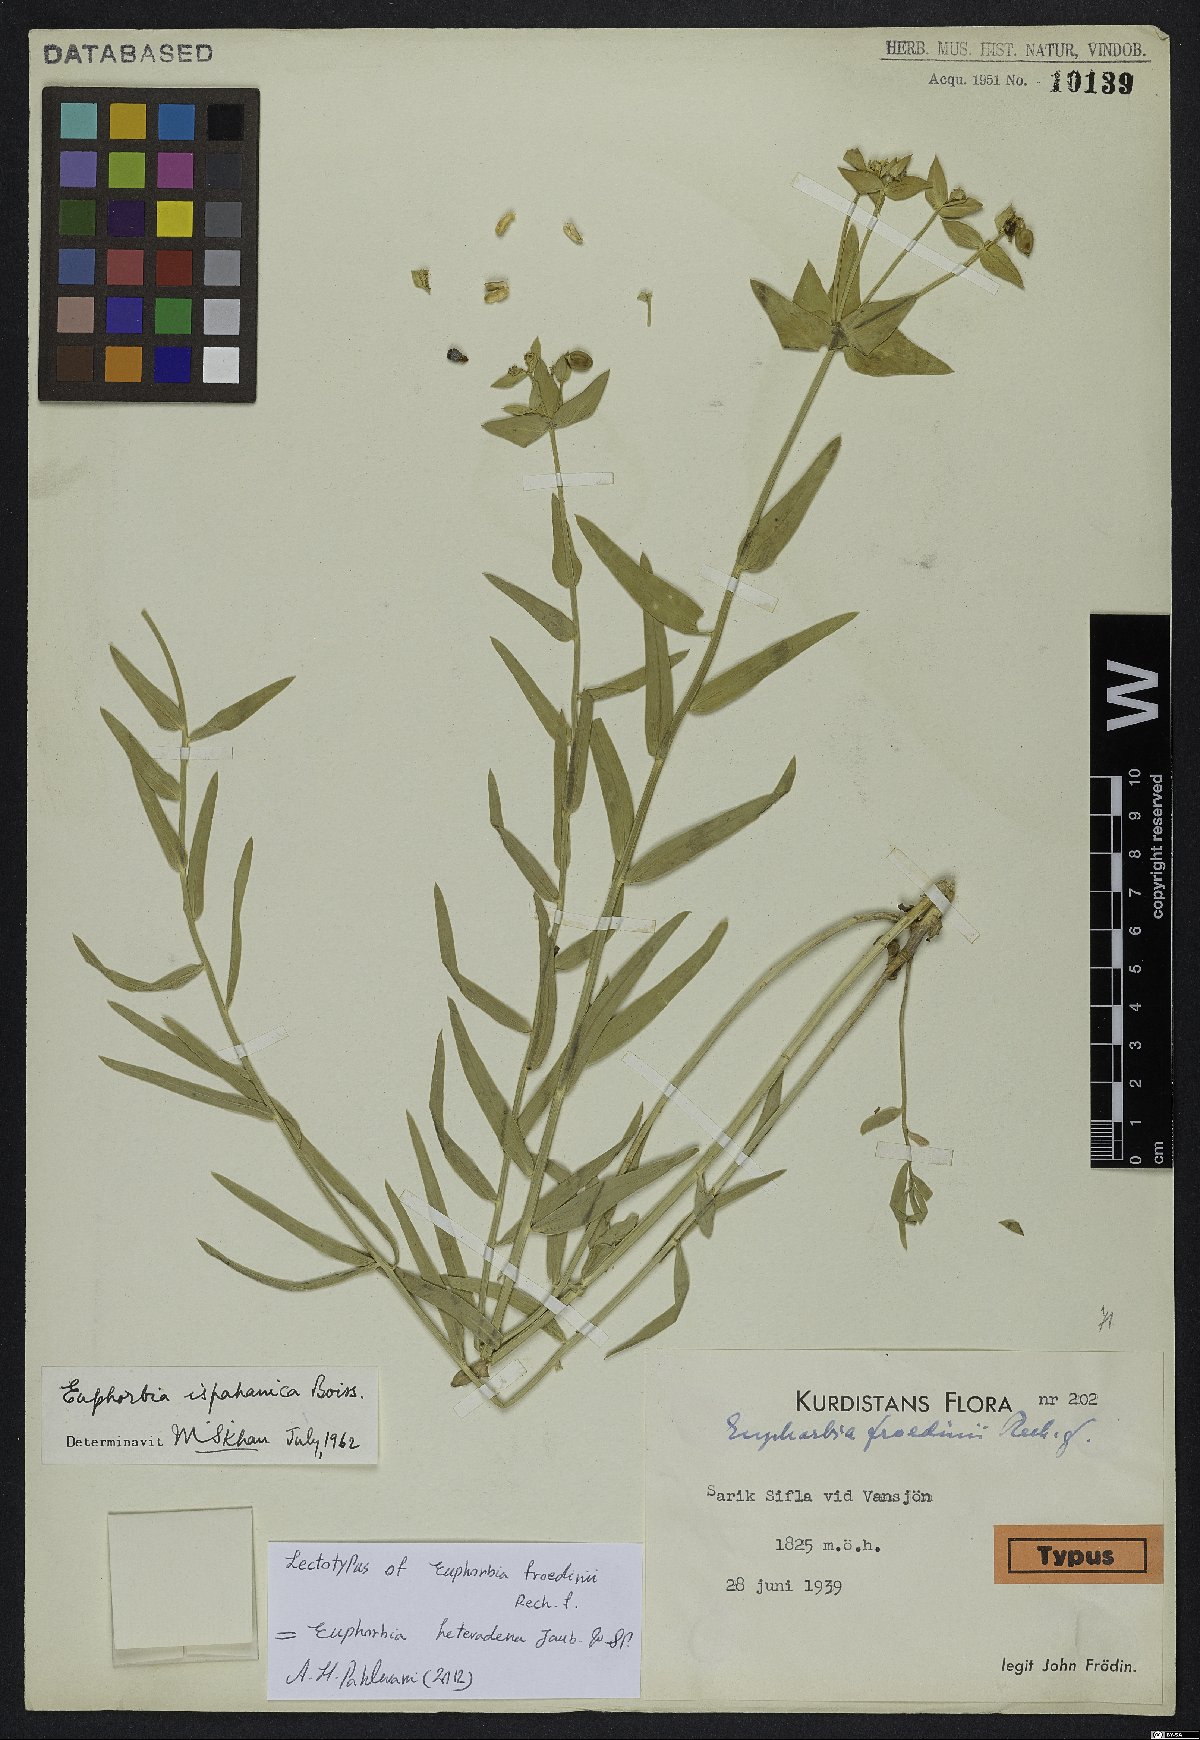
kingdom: Plantae
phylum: Tracheophyta
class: Magnoliopsida
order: Malpighiales
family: Euphorbiaceae
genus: Euphorbia
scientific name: Euphorbia heteradena
